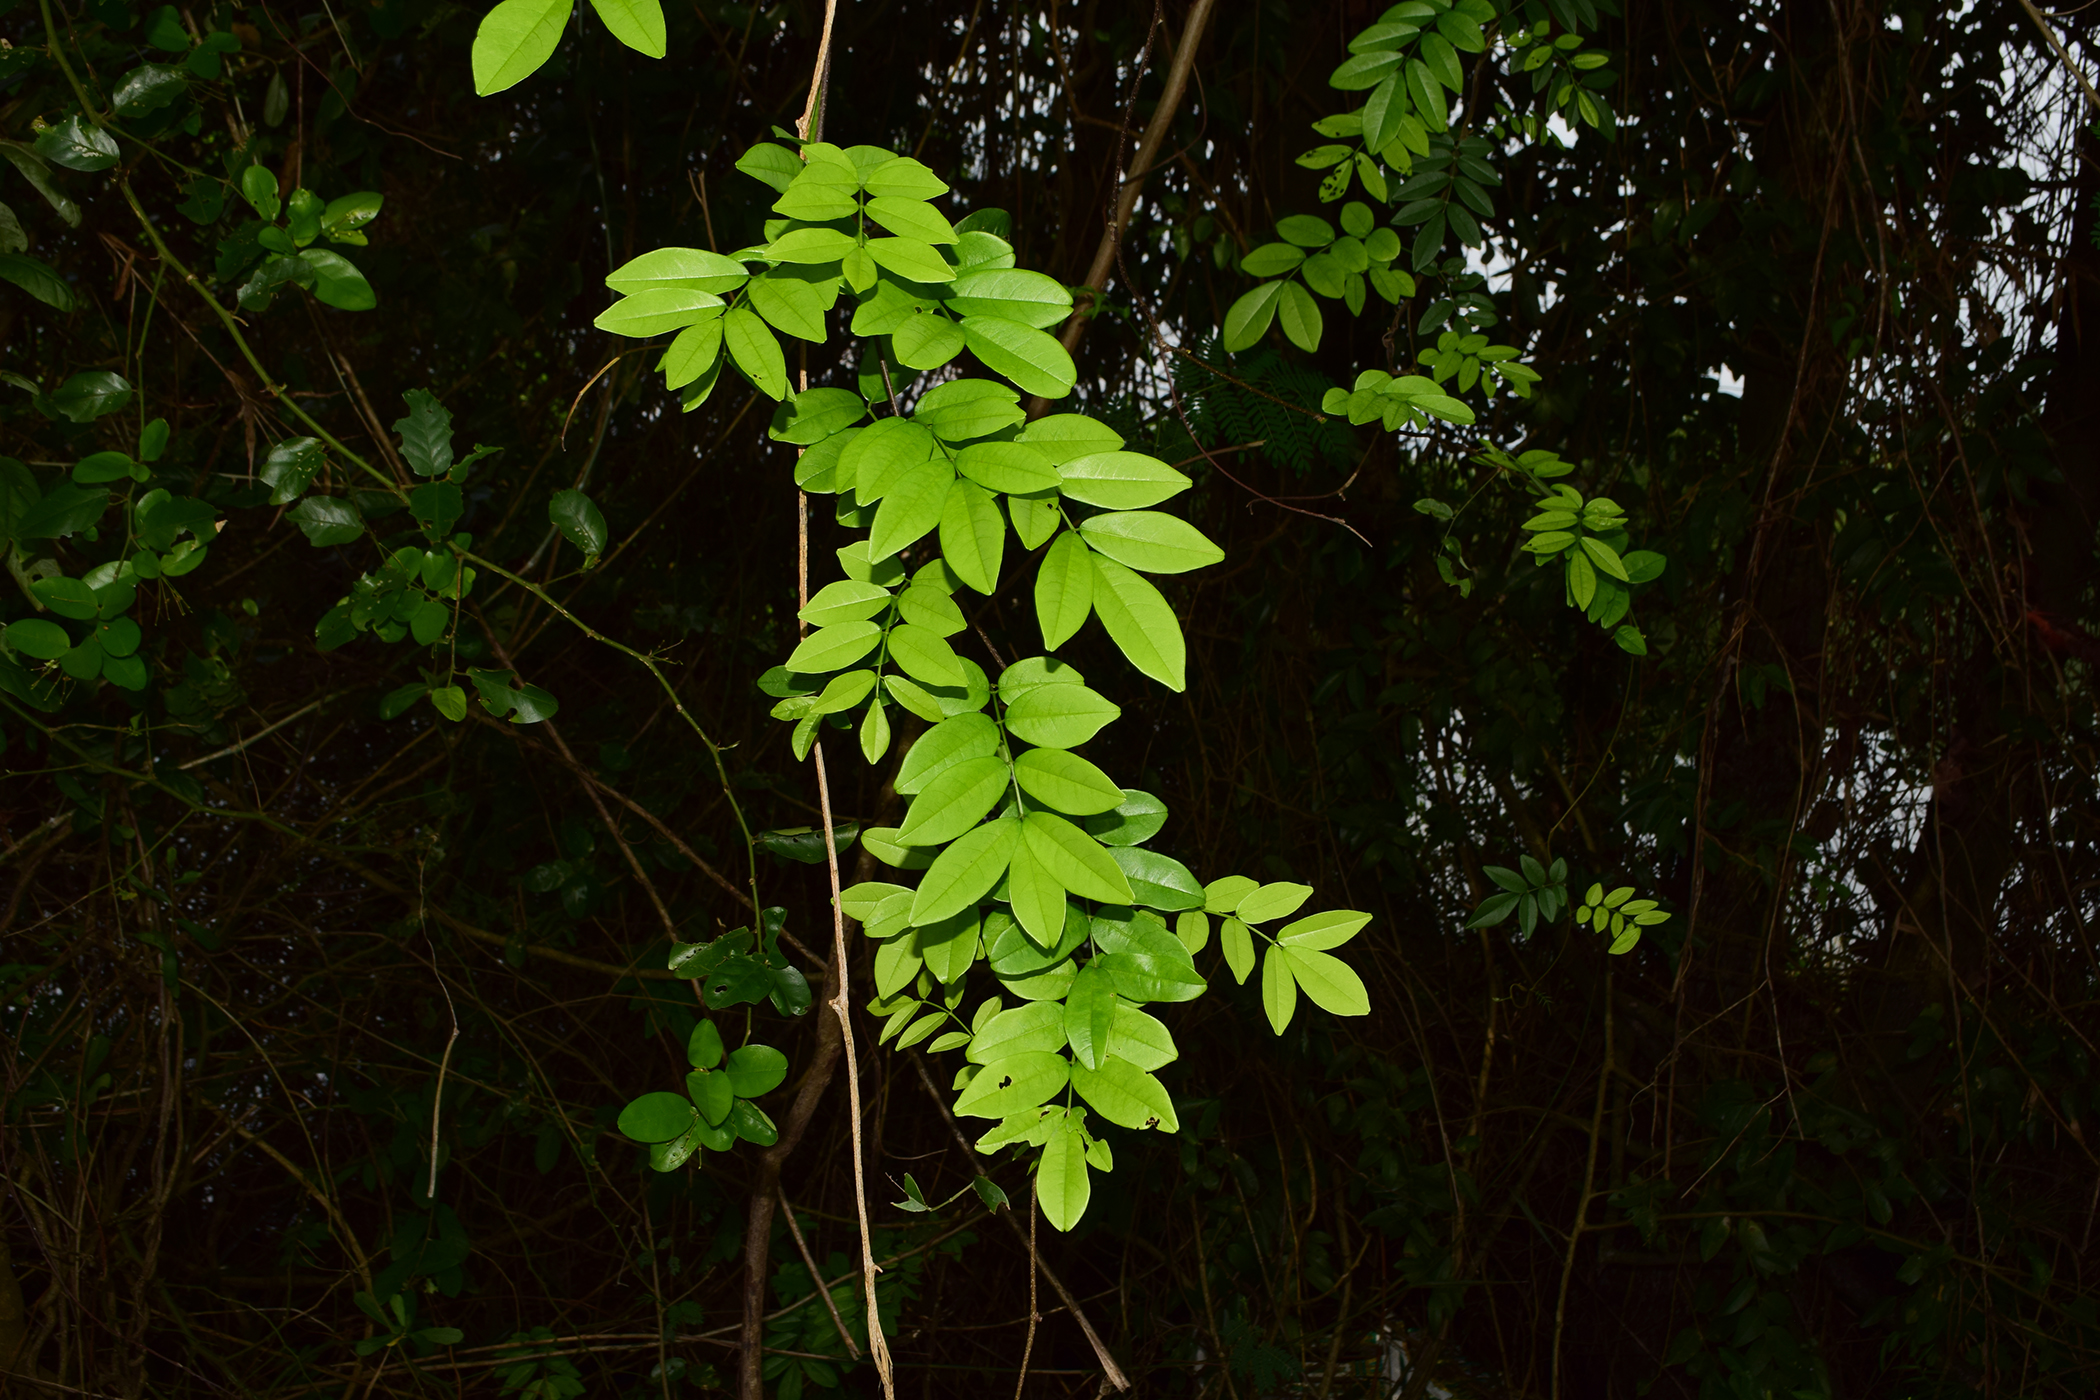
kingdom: Plantae
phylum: Tracheophyta
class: Magnoliopsida
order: Fabales
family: Fabaceae
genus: Brachypterum
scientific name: Brachypterum scandens
